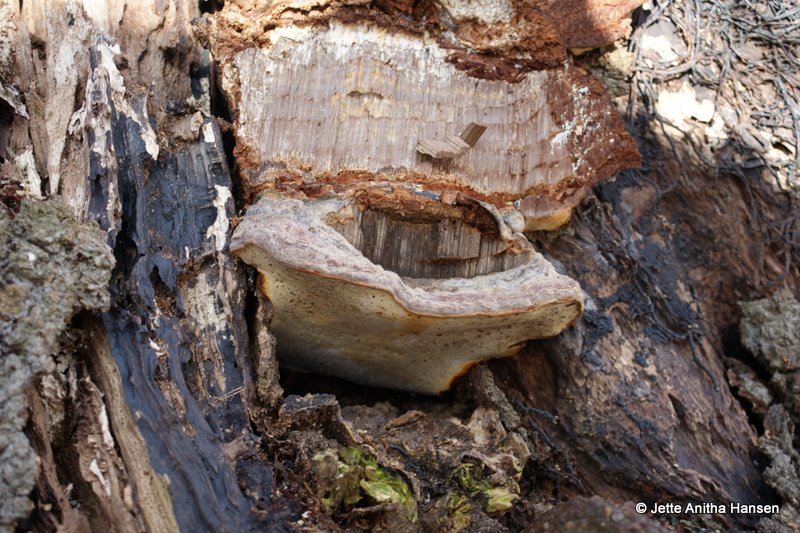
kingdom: Fungi
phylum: Basidiomycota
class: Agaricomycetes
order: Polyporales
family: Polyporaceae
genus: Ganoderma
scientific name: Ganoderma pfeifferi
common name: kobberrød lakporesvamp
